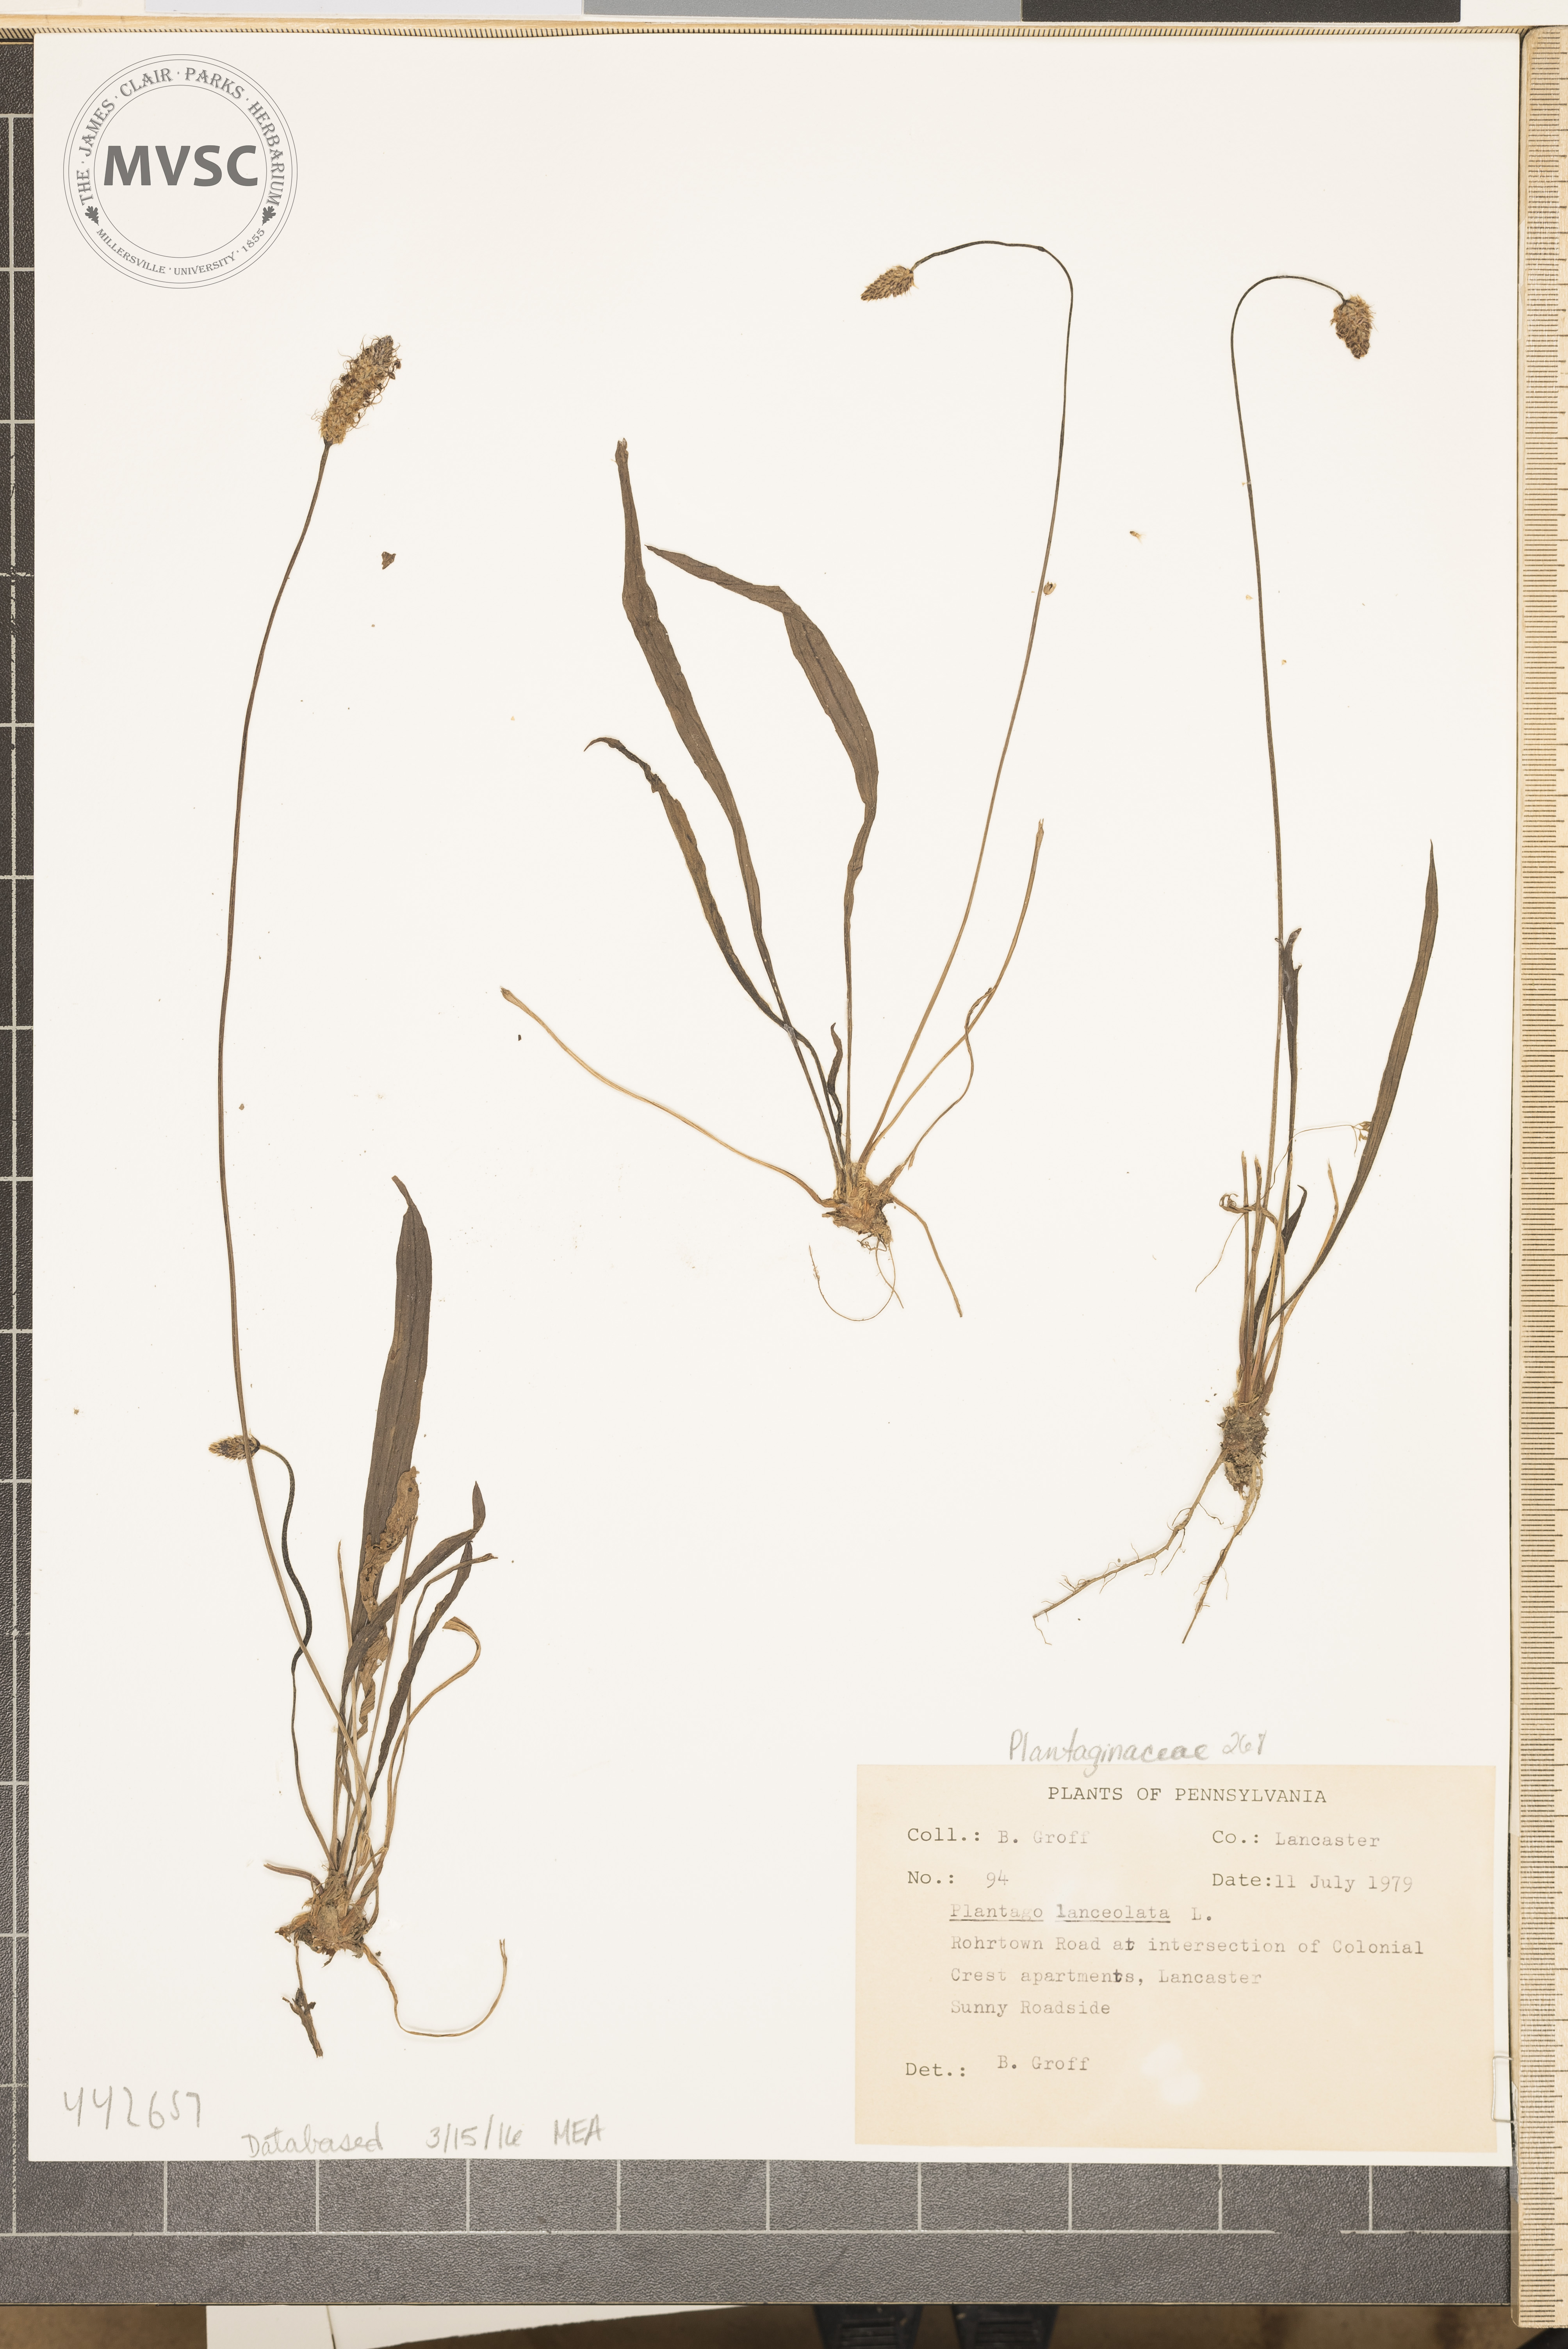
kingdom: Plantae
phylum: Tracheophyta
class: Magnoliopsida
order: Lamiales
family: Plantaginaceae
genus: Plantago
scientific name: Plantago lanceolata
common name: English plantain
